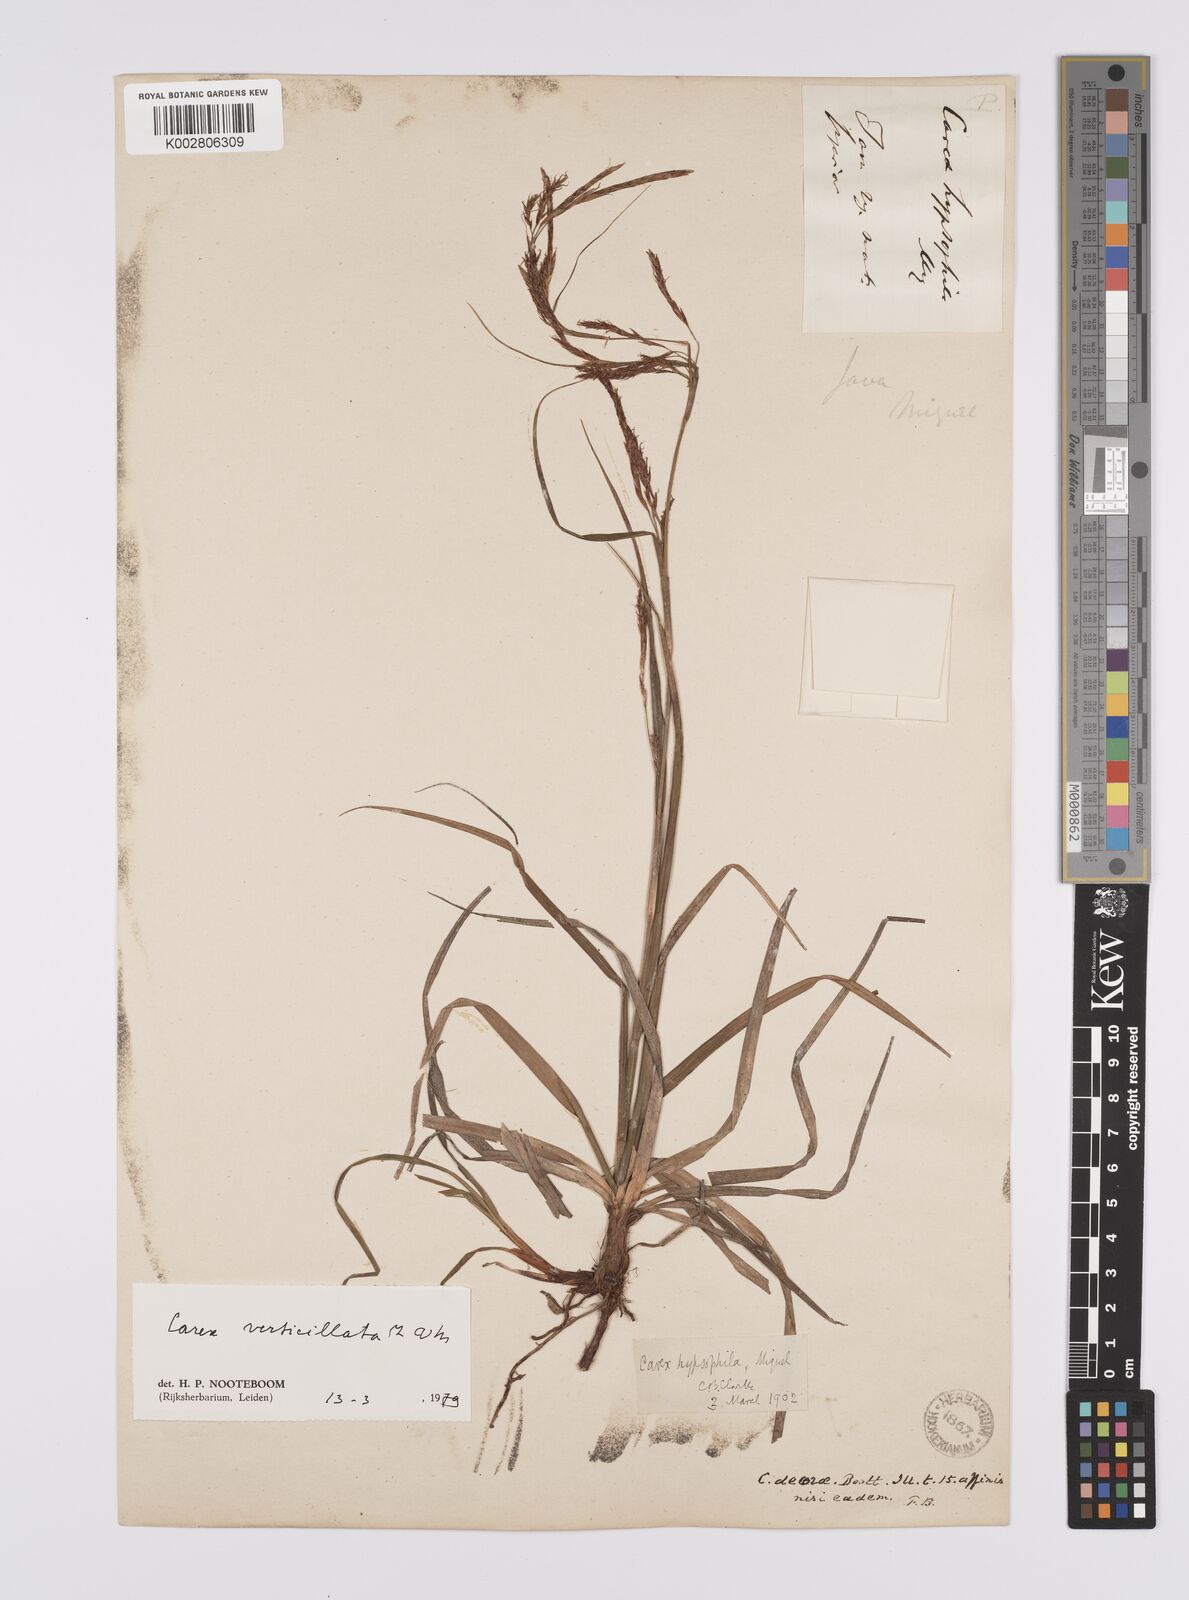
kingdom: Plantae
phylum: Tracheophyta
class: Liliopsida
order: Poales
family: Cyperaceae
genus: Carex
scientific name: Carex verticillata
